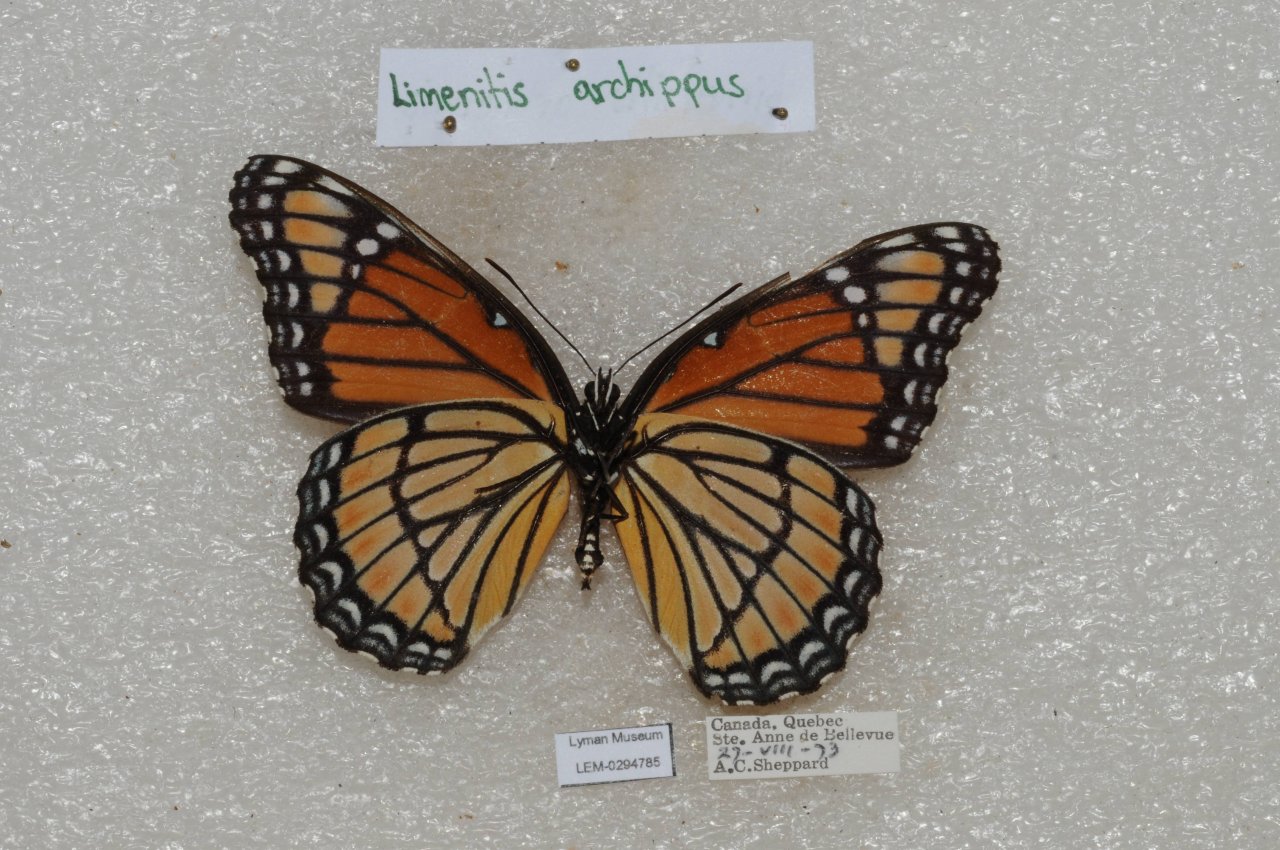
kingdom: Animalia
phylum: Arthropoda
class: Insecta
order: Lepidoptera
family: Nymphalidae
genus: Limenitis
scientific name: Limenitis archippus
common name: Viceroy
